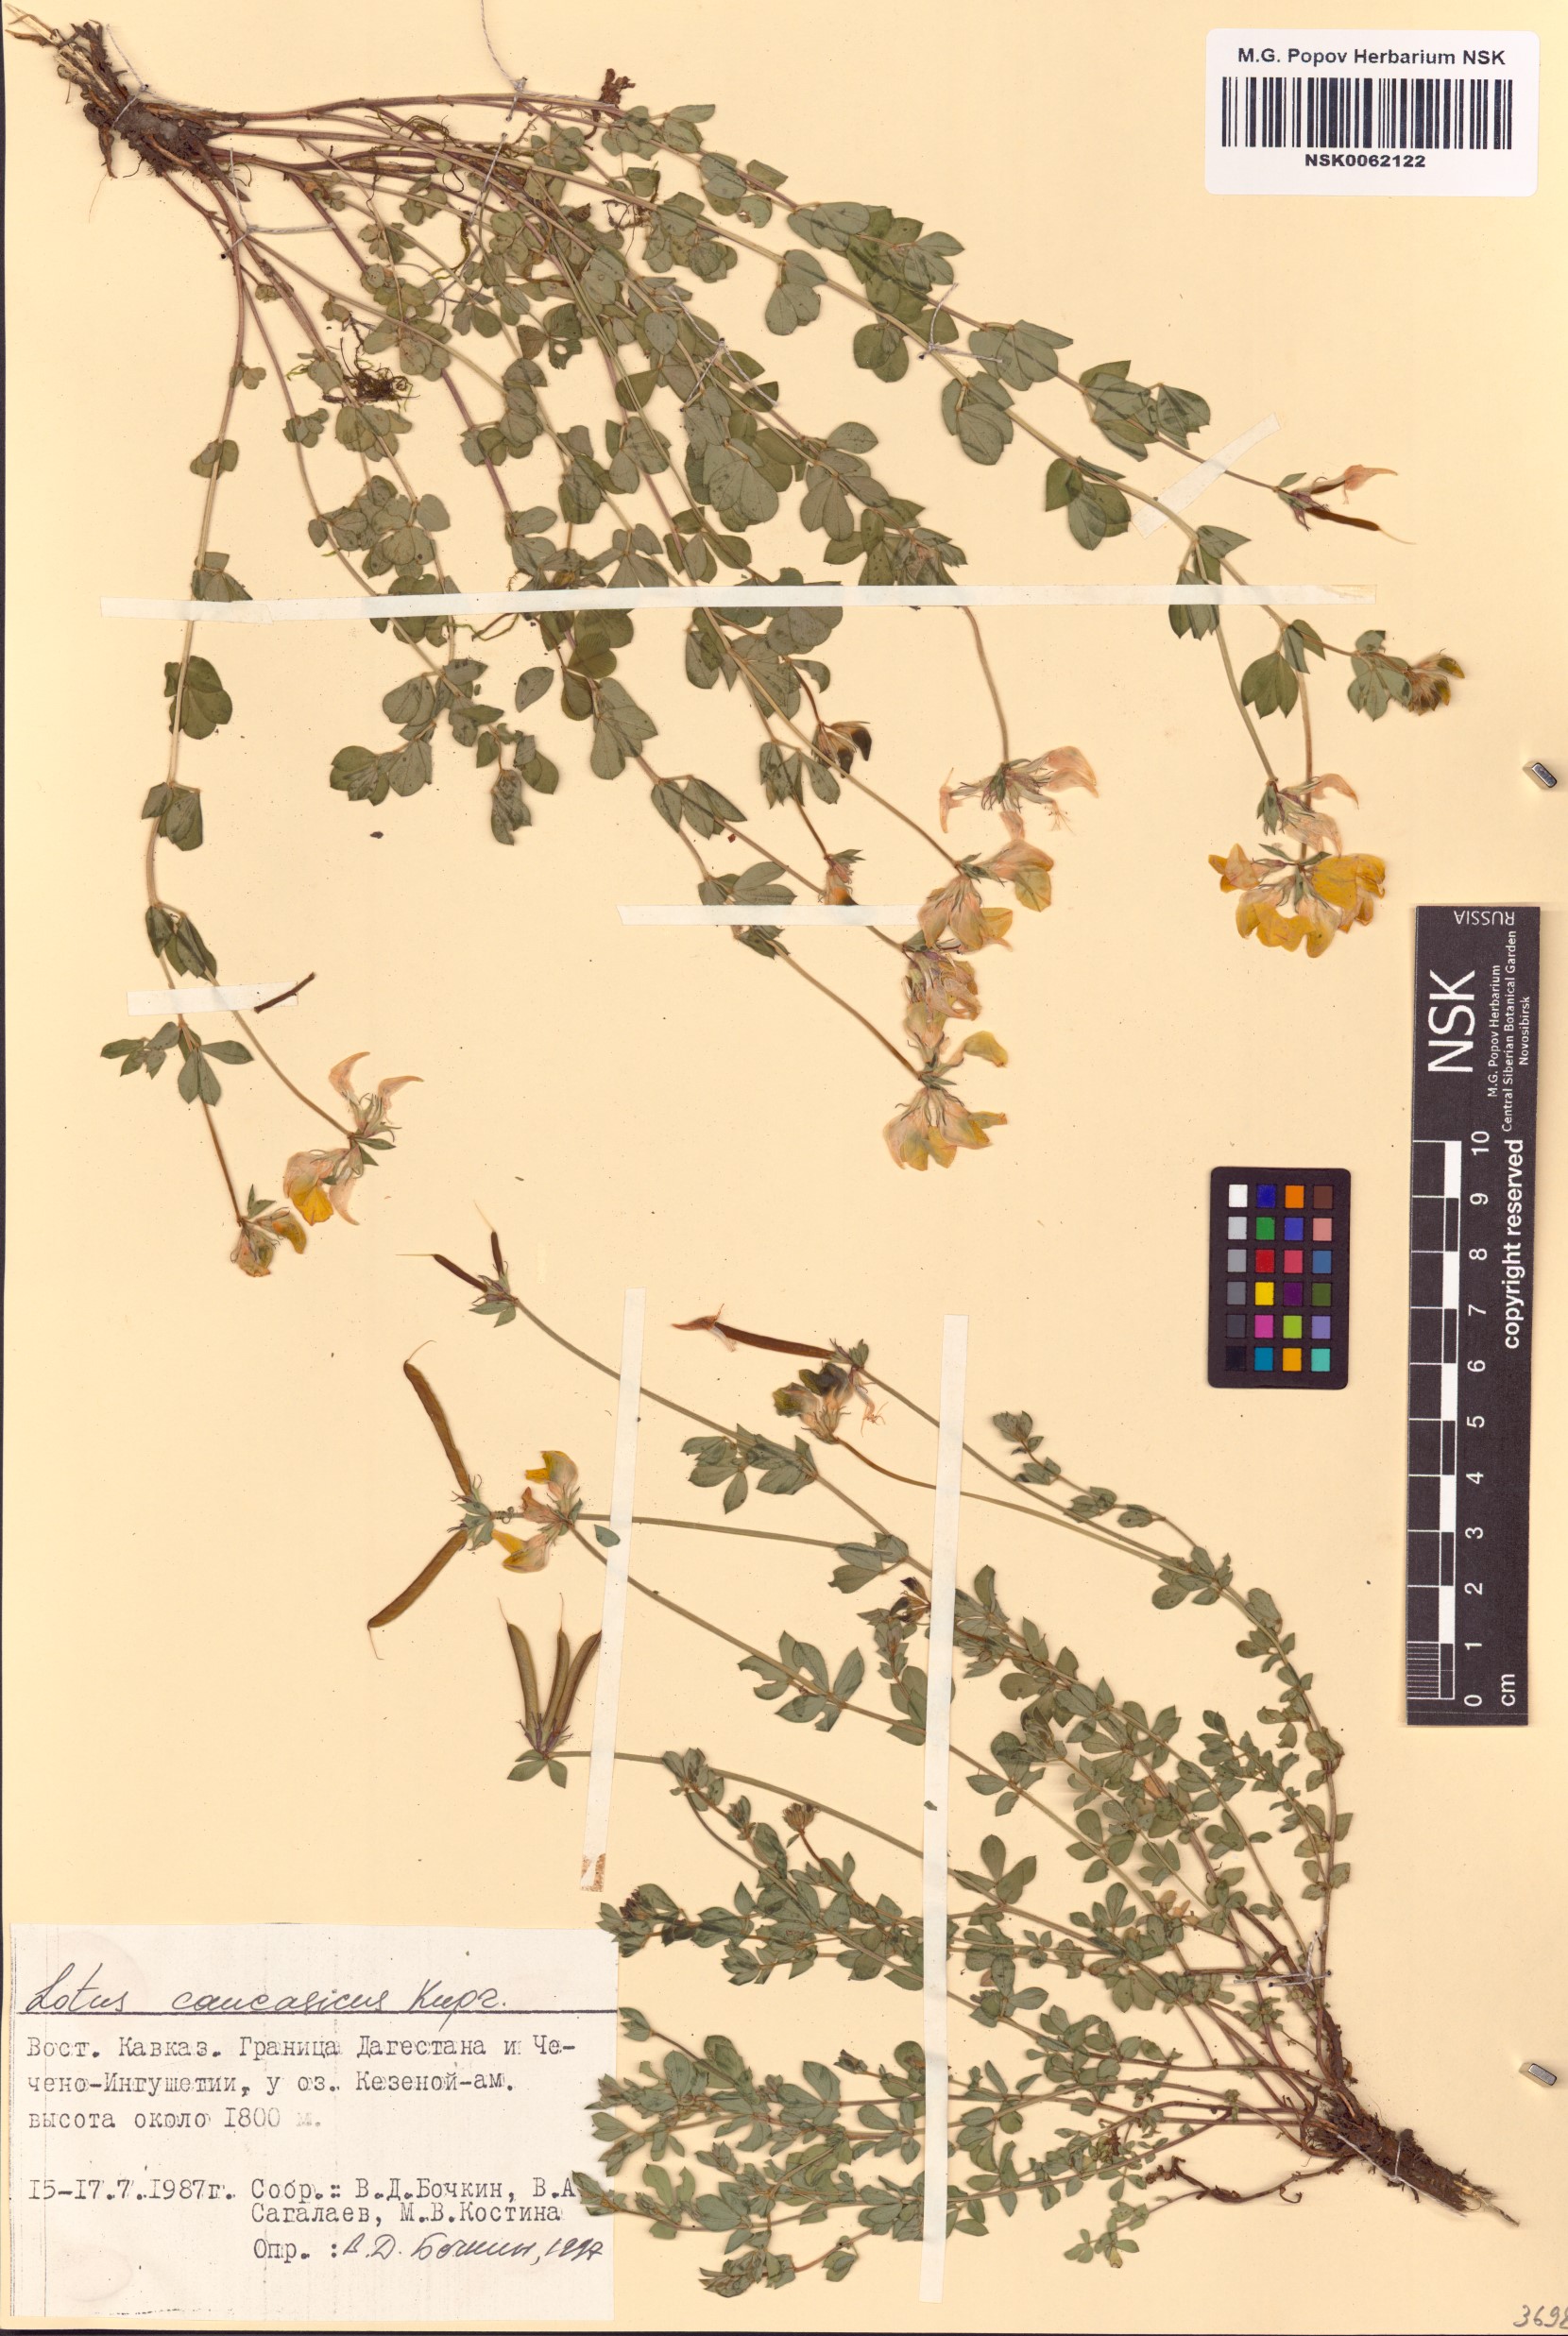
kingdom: Plantae
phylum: Tracheophyta
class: Magnoliopsida
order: Fabales
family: Fabaceae
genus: Lotus
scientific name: Lotus corniculatus
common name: Common bird's-foot-trefoil
